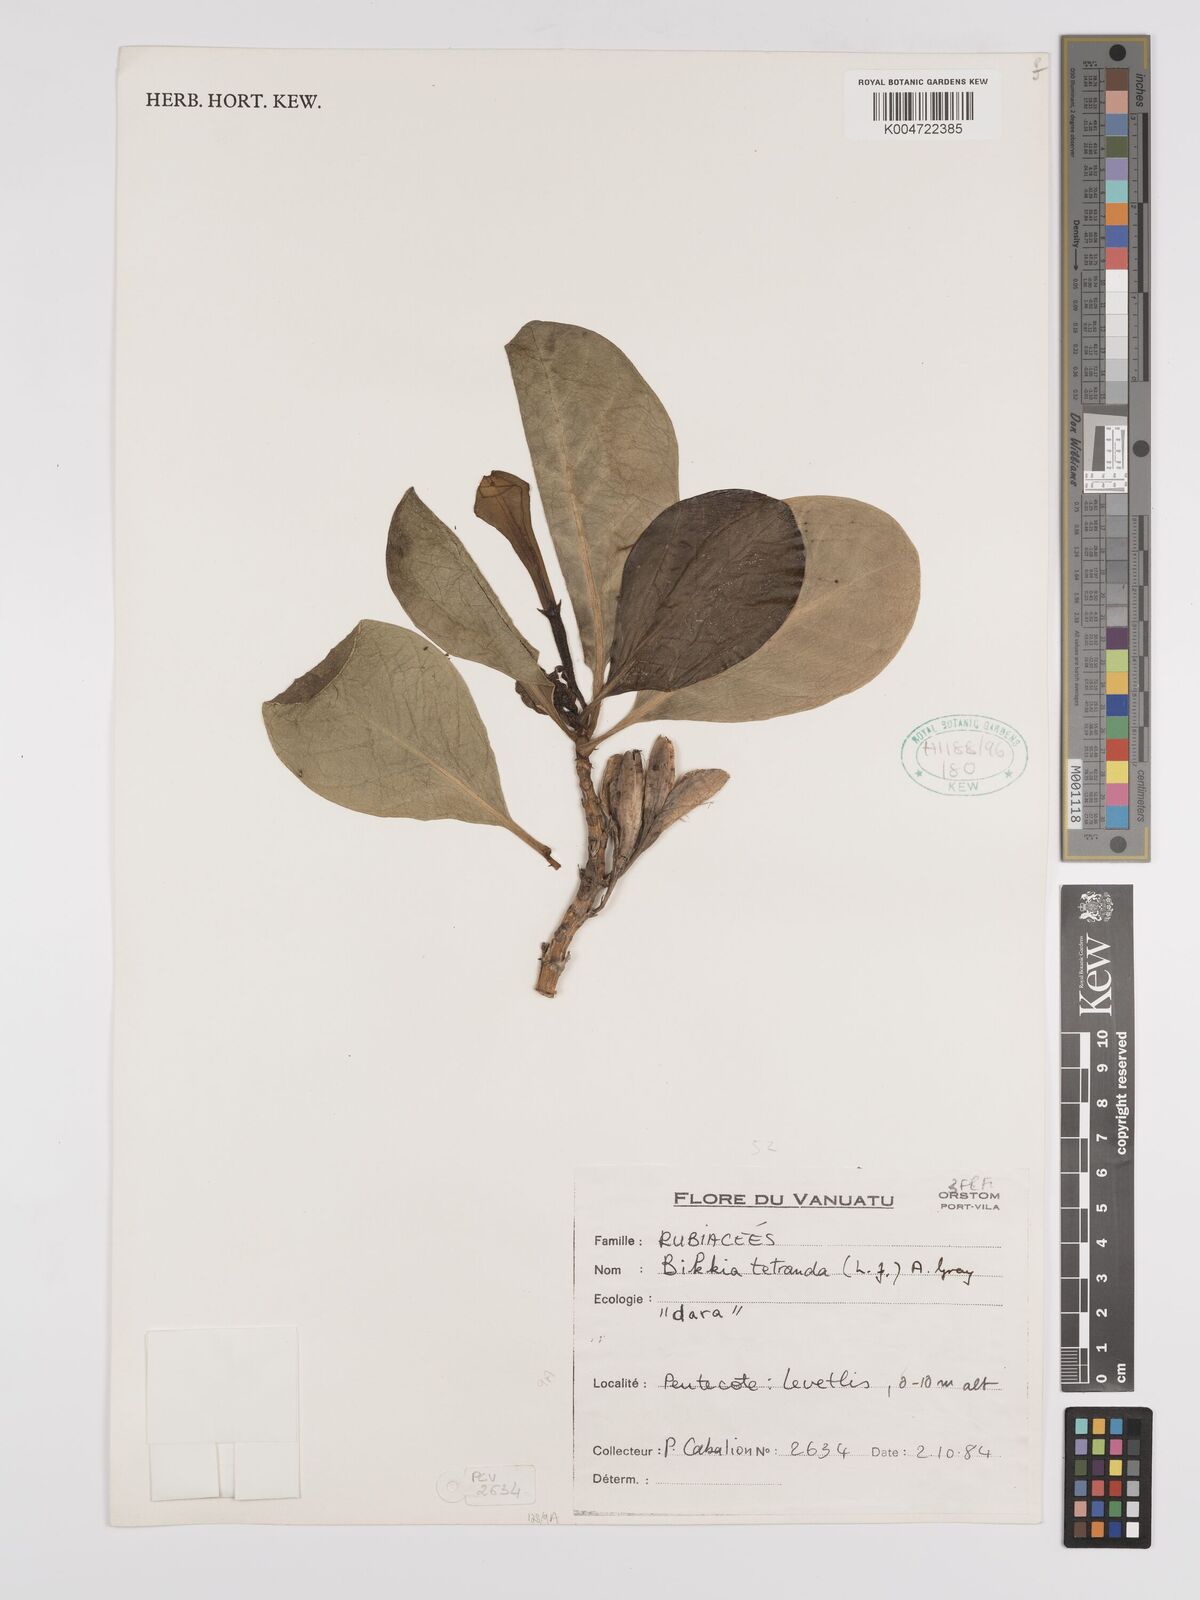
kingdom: Plantae
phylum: Tracheophyta
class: Magnoliopsida
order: Gentianales
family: Rubiaceae
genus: Bikkia
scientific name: Bikkia
